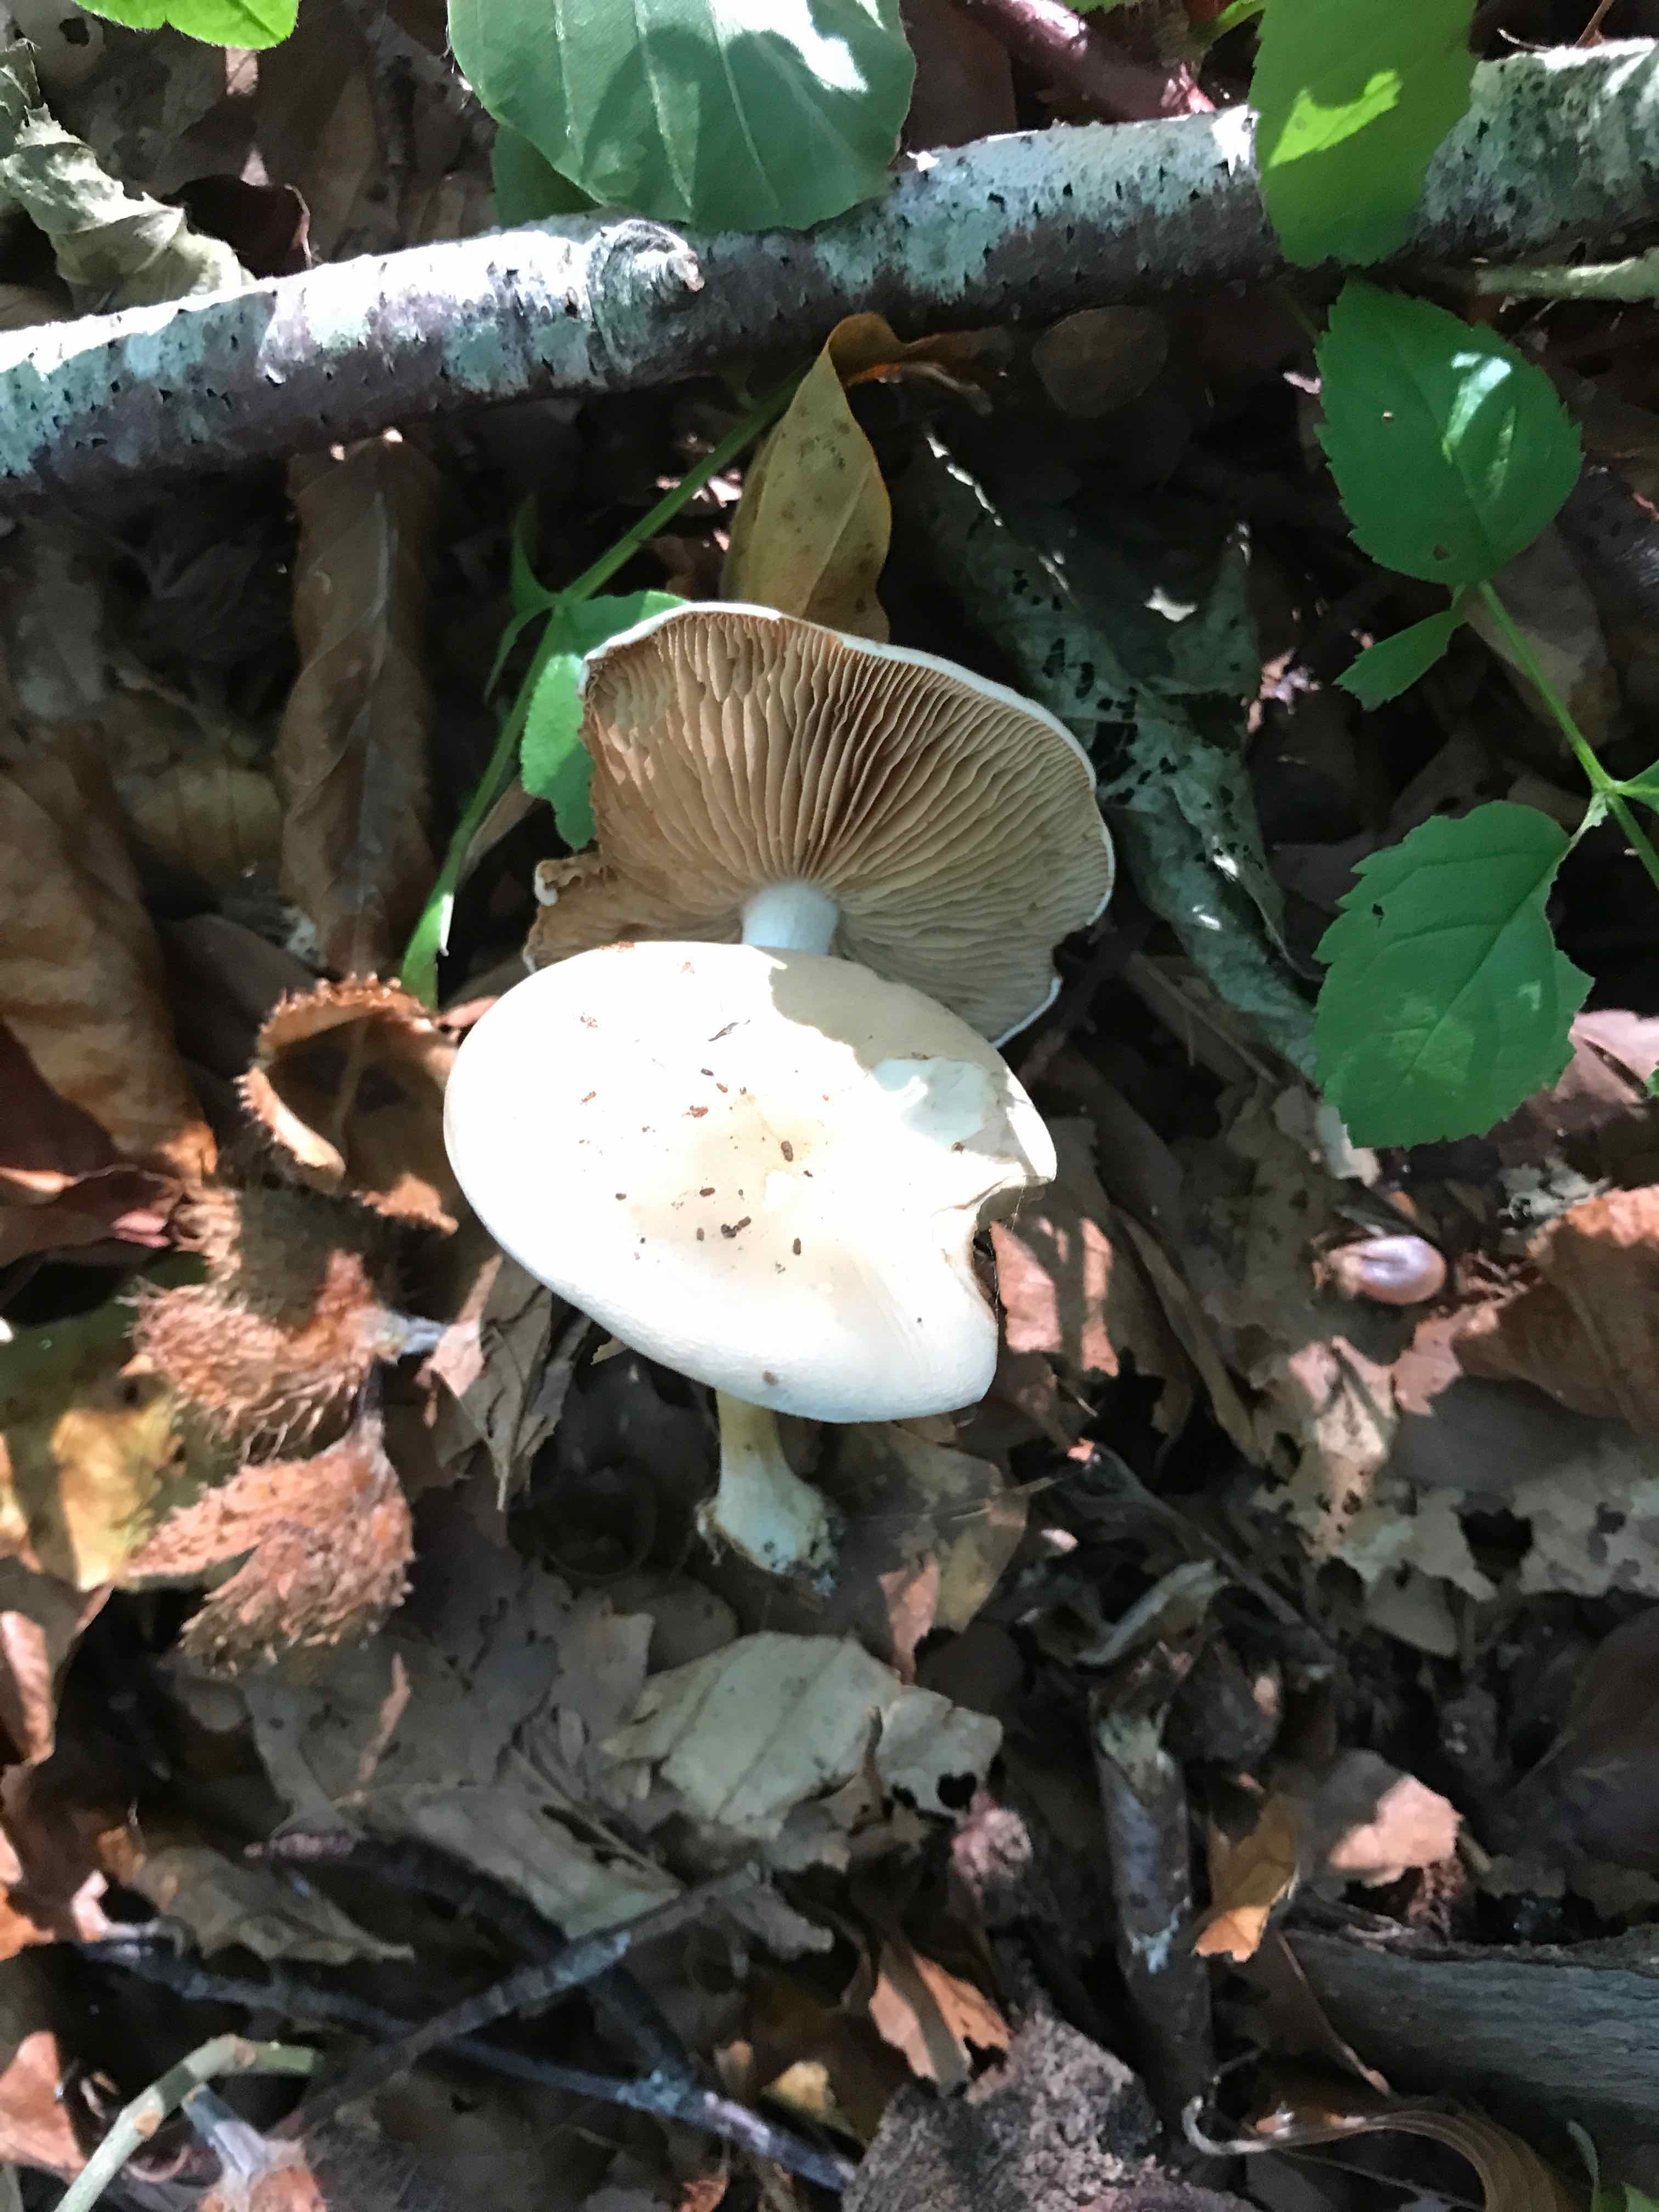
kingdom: Fungi
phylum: Basidiomycota
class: Agaricomycetes
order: Agaricales
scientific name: Agaricales
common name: champignonordenen
